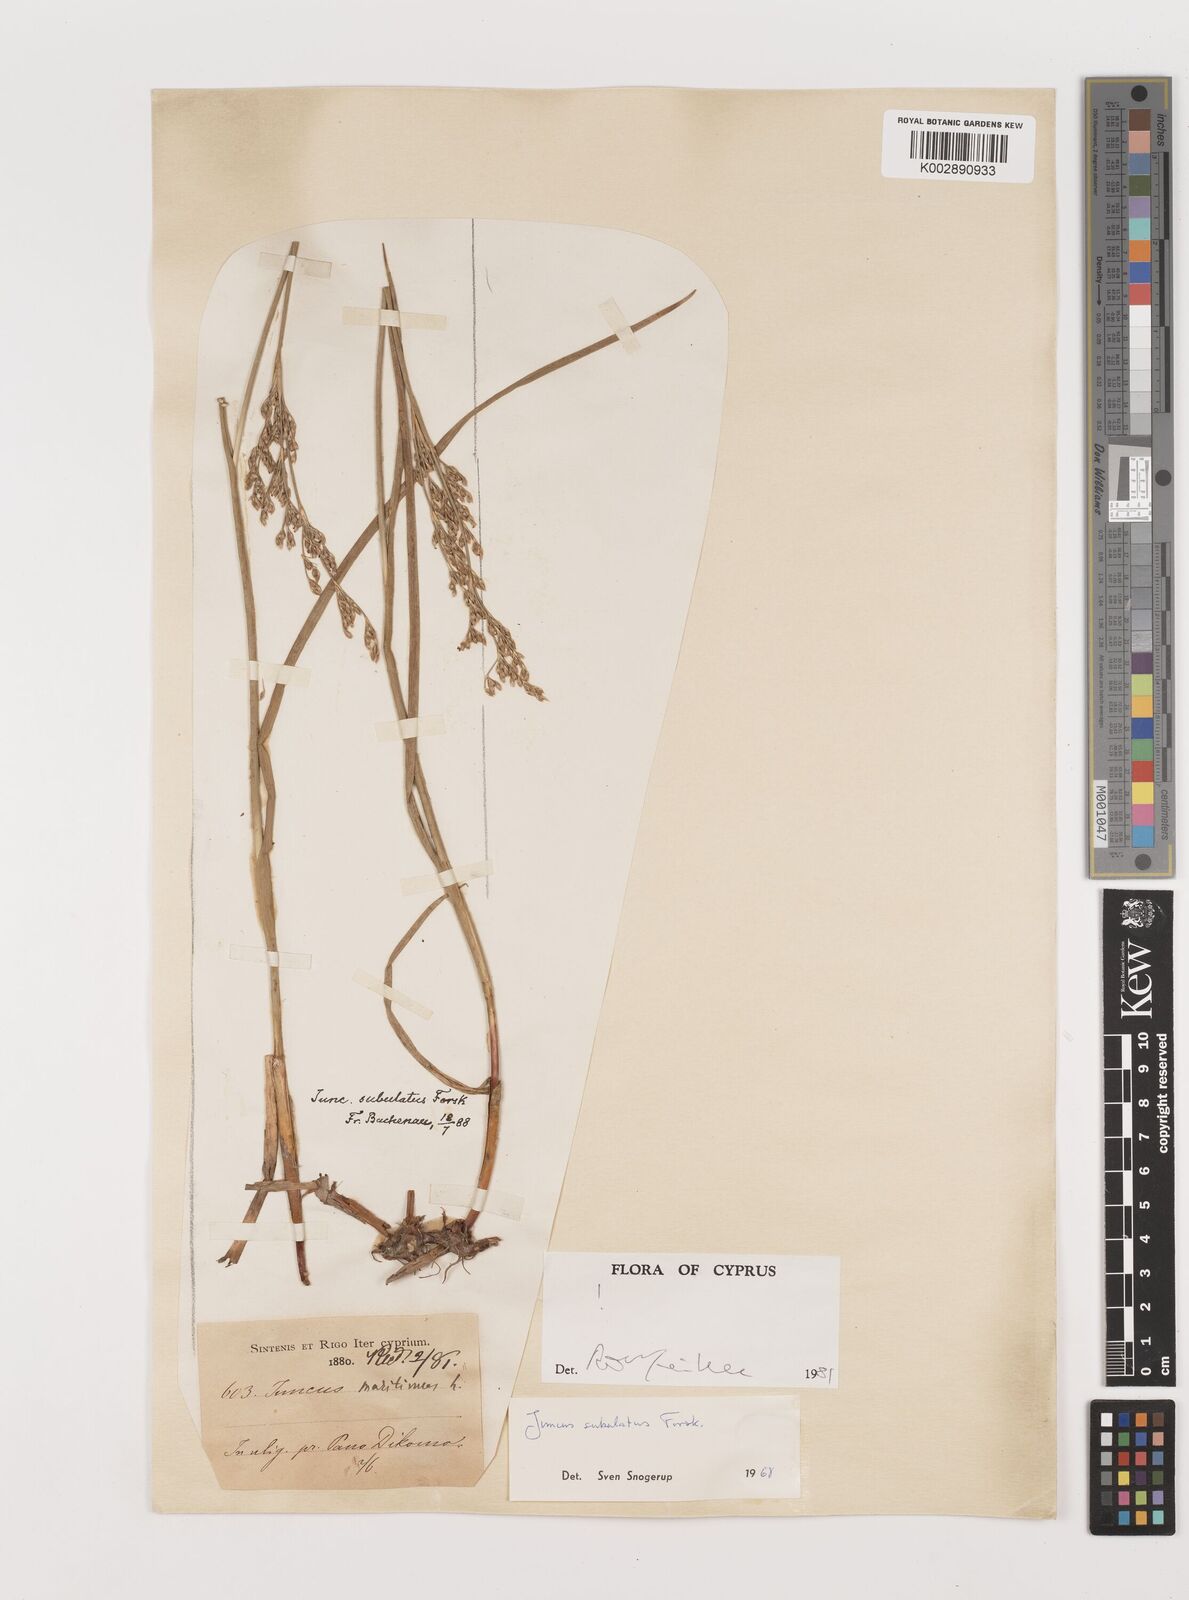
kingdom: Plantae
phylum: Tracheophyta
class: Liliopsida
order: Poales
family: Juncaceae
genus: Juncus
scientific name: Juncus subulatus
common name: Somerset rush
